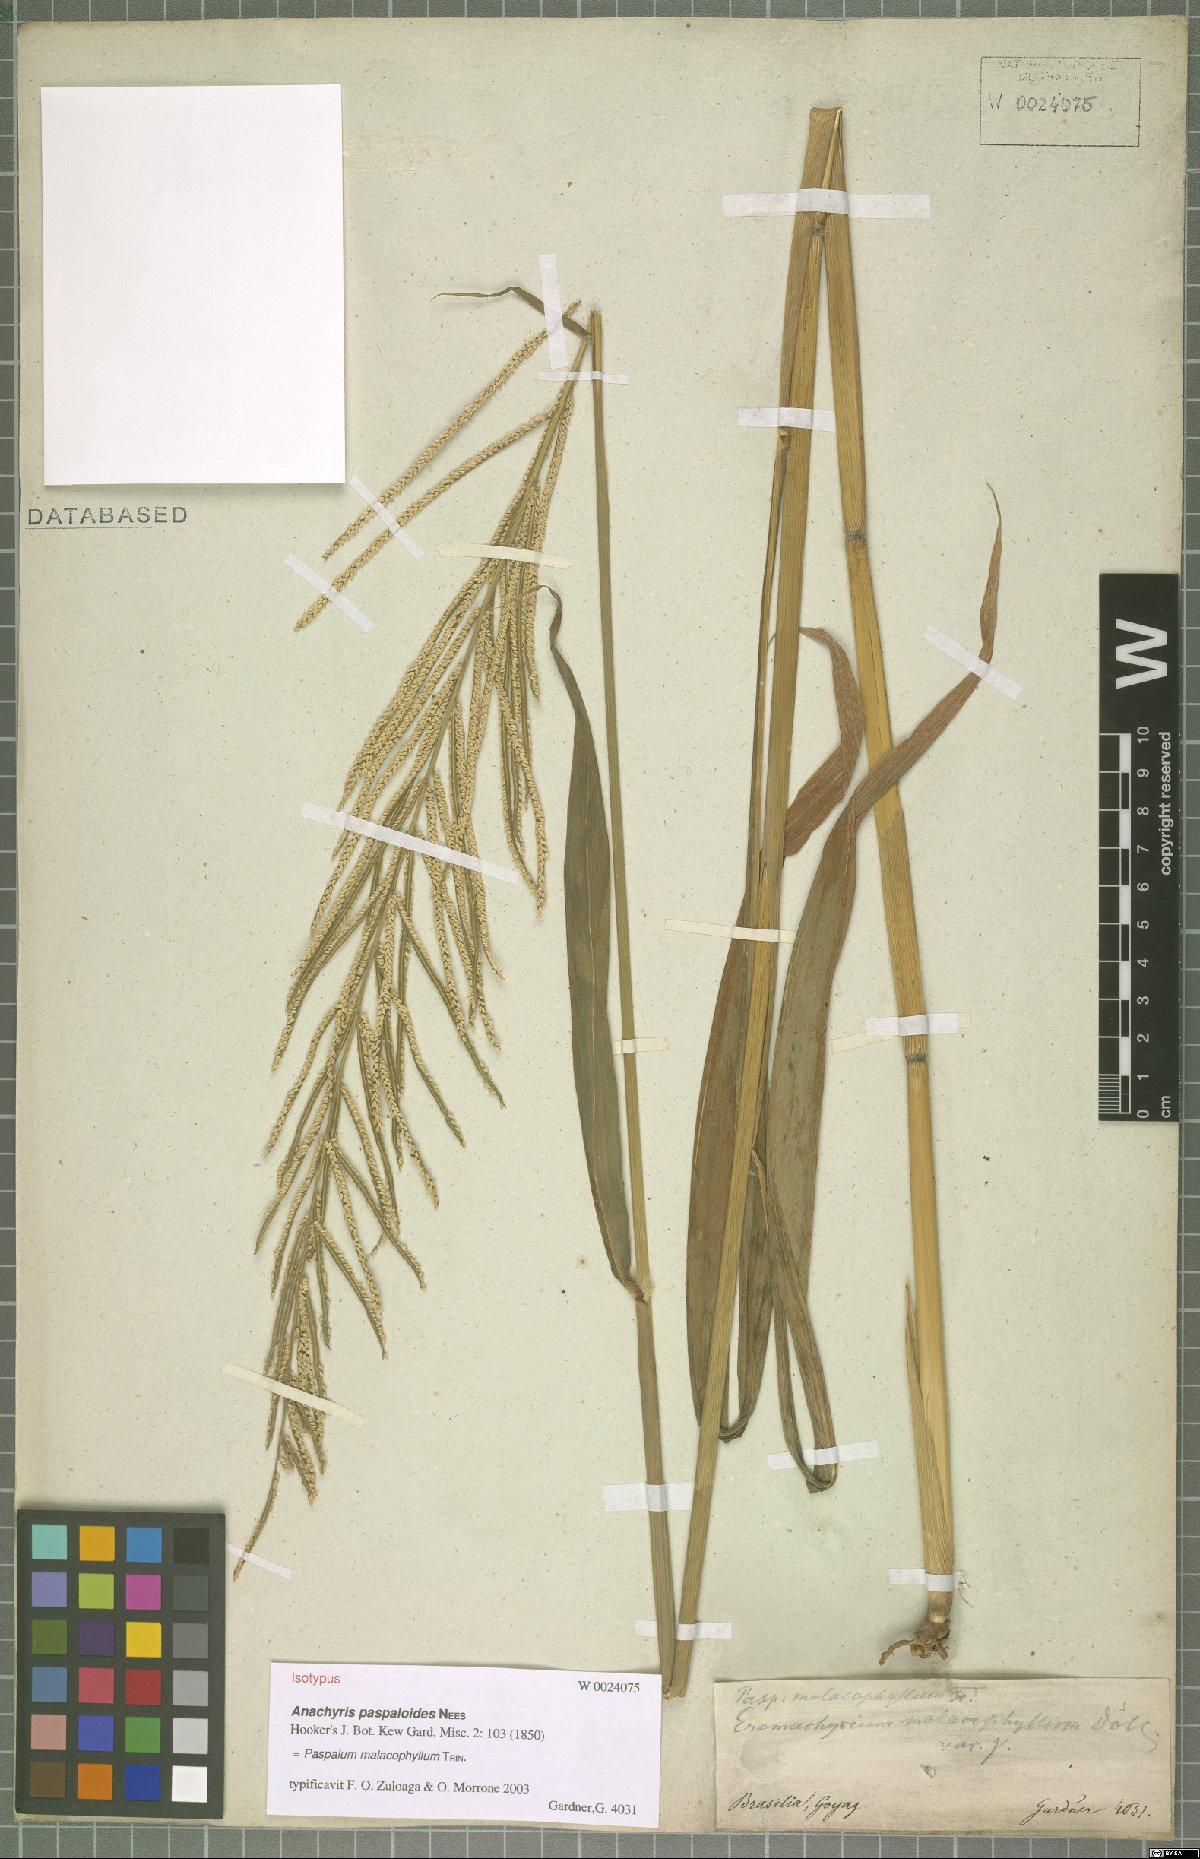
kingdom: Plantae
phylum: Tracheophyta
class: Liliopsida
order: Poales
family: Poaceae
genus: Paspalum
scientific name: Paspalum malacophyllum
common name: Ribbed paspalum
